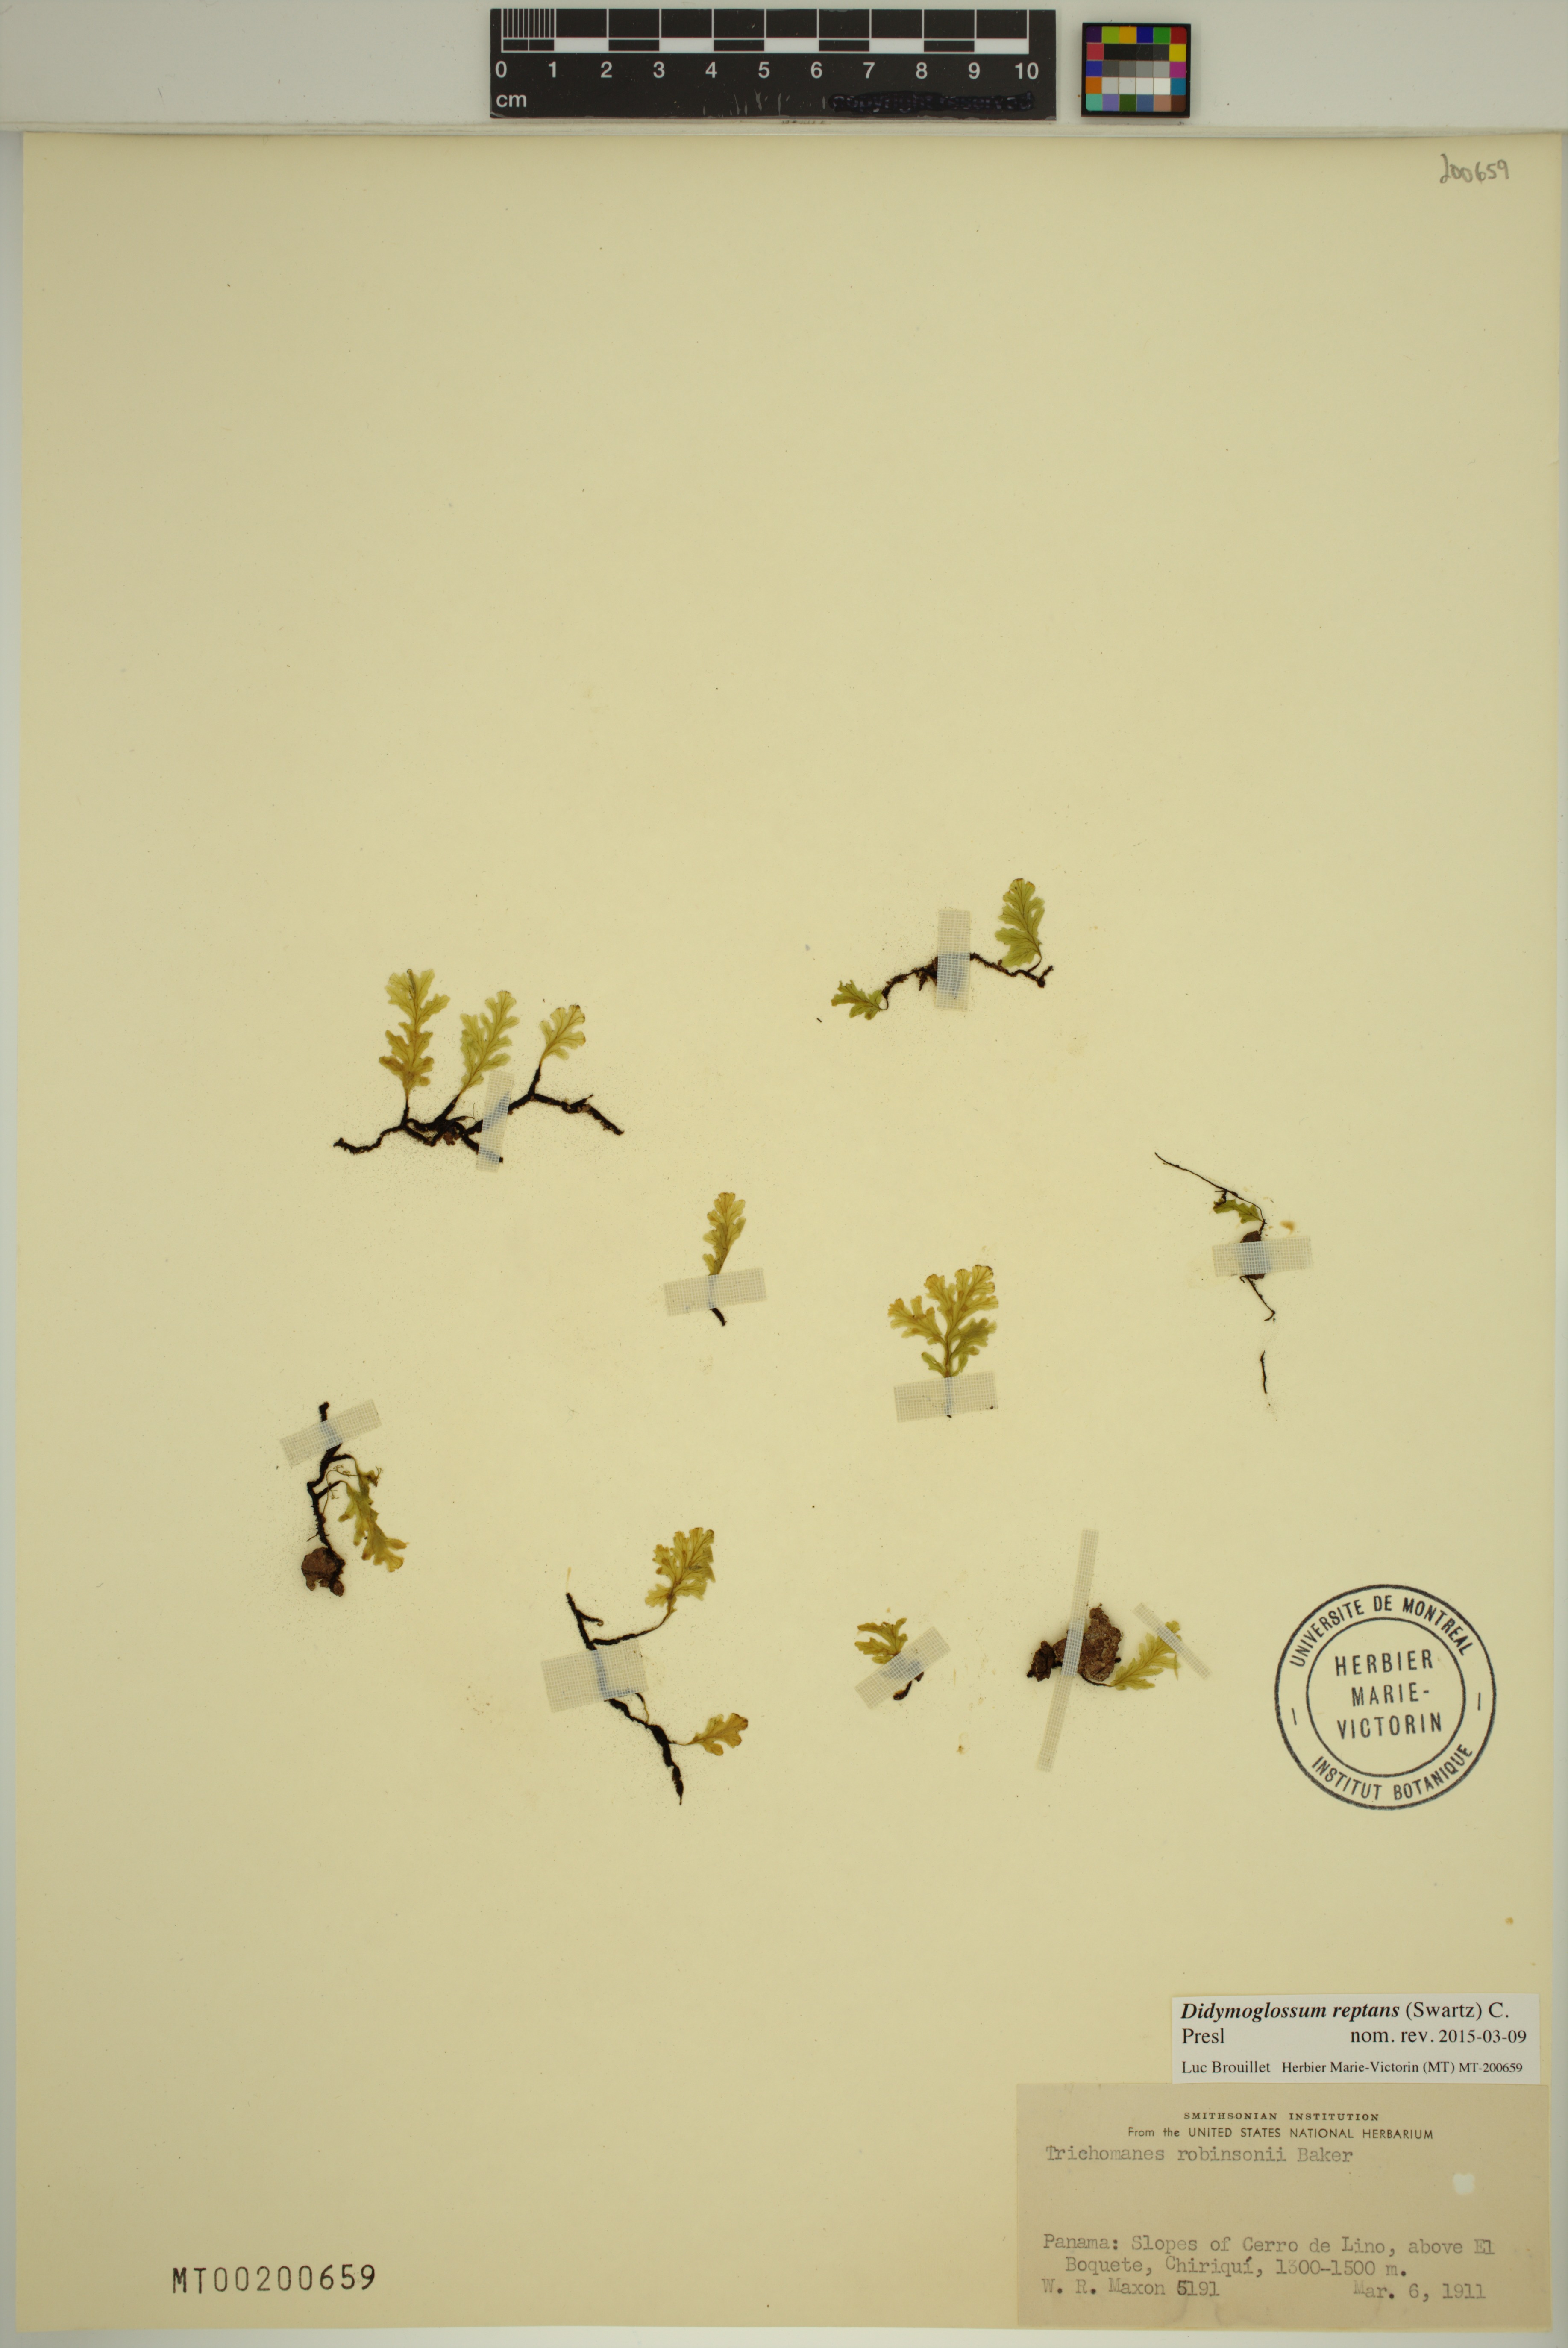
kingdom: Plantae
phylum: Tracheophyta
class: Polypodiopsida
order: Hymenophyllales
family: Hymenophyllaceae
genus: Didymoglossum
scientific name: Didymoglossum reptans
